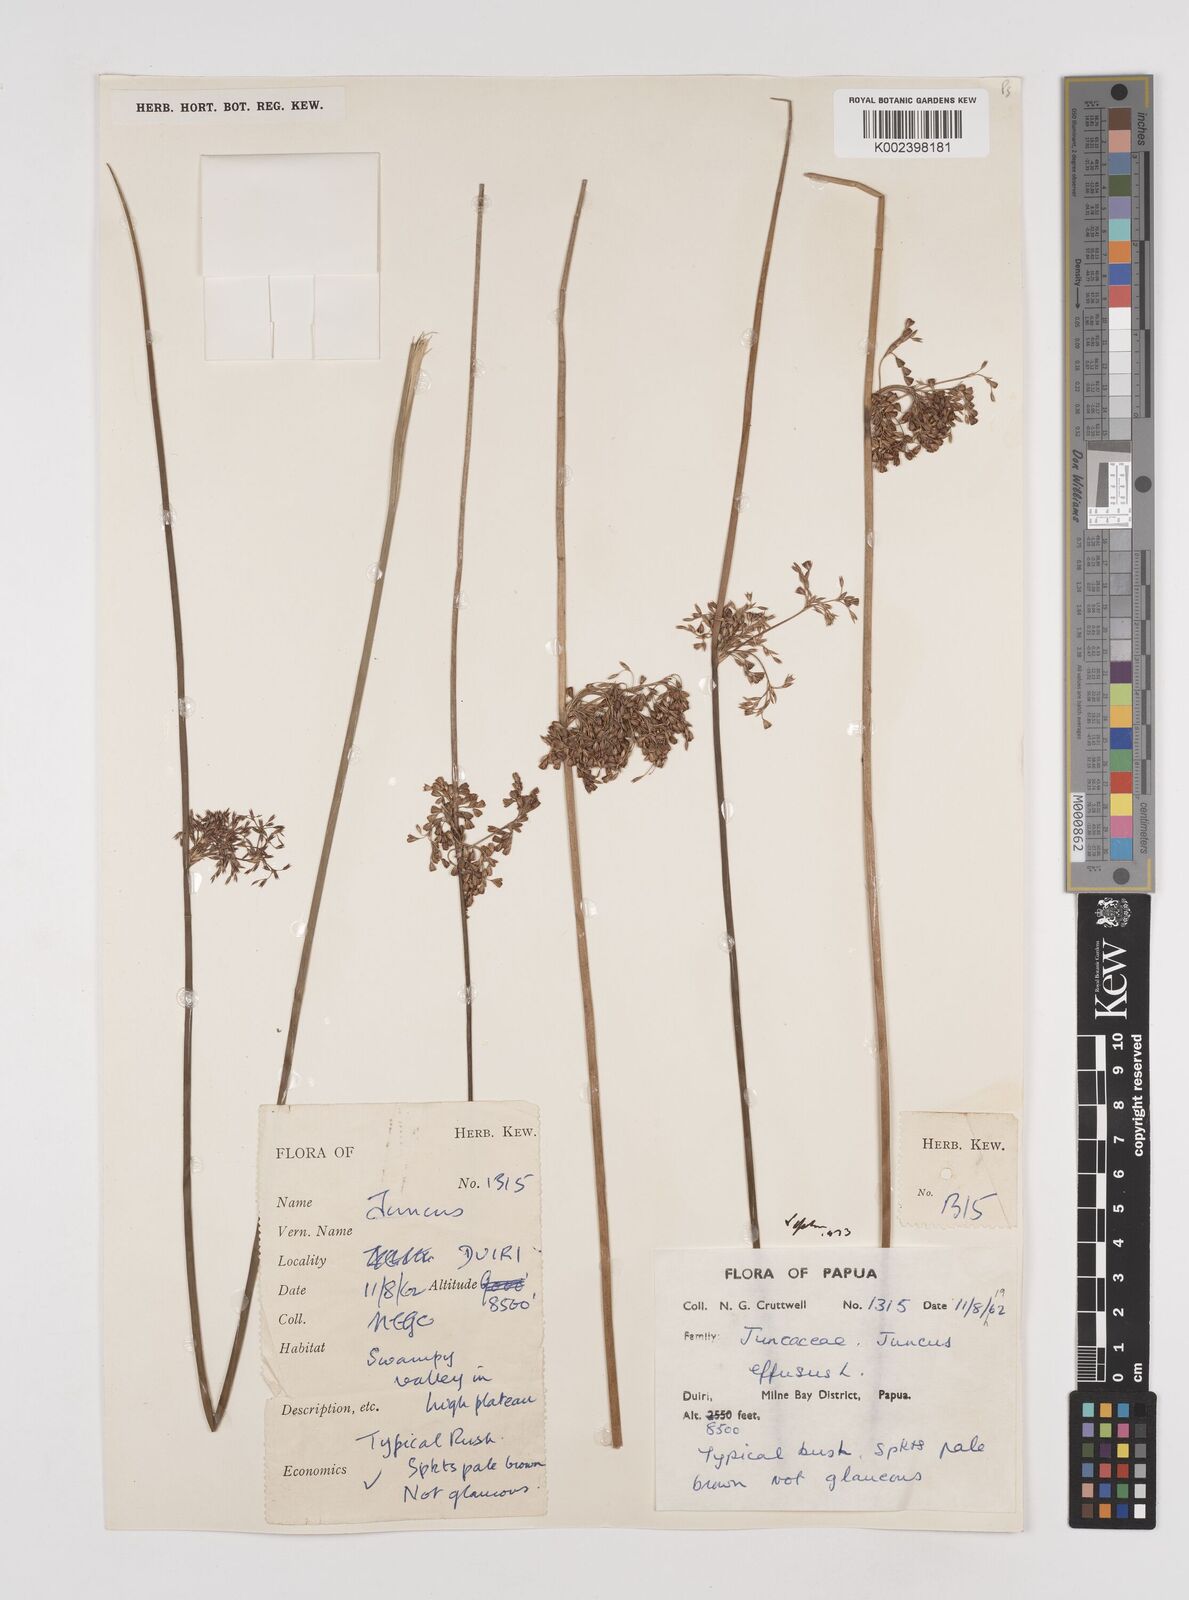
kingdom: Plantae
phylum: Tracheophyta
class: Liliopsida
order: Poales
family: Juncaceae
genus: Juncus
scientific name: Juncus decipiens
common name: Lamp rush
